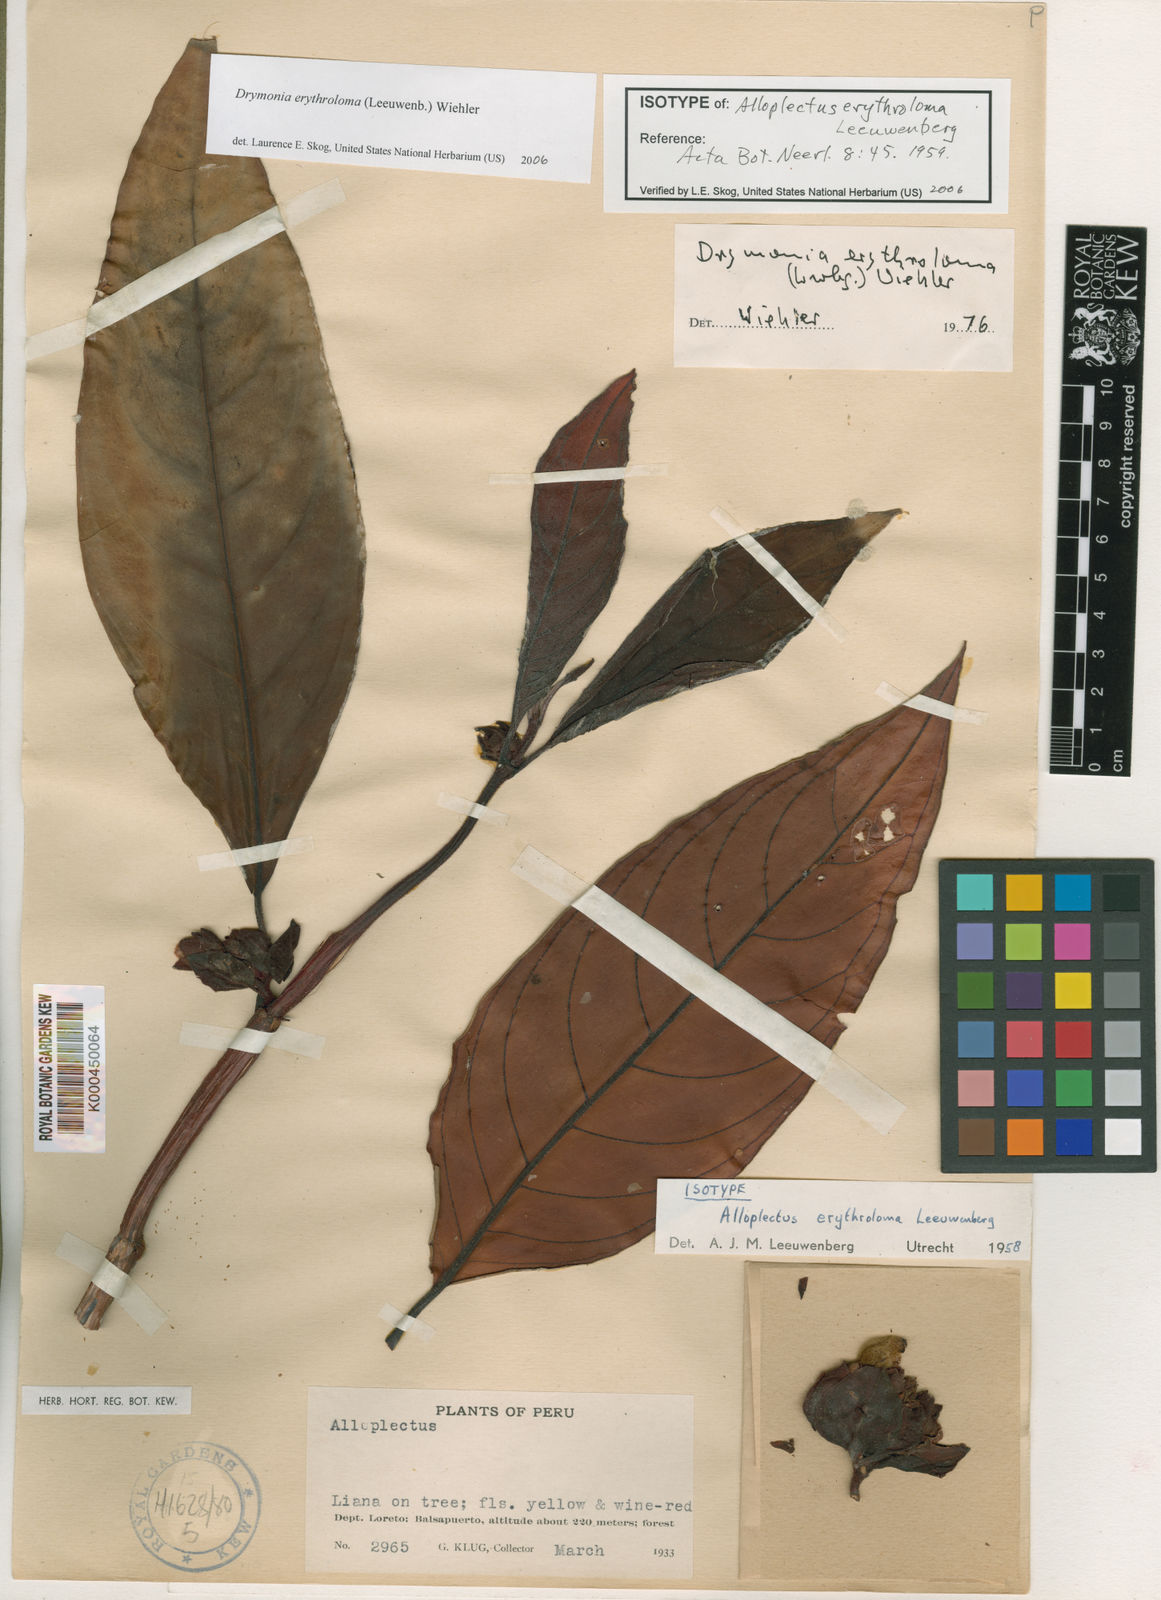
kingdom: Plantae
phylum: Tracheophyta
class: Magnoliopsida
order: Lamiales
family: Gesneriaceae
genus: Drymonia
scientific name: Drymonia erythroloma
